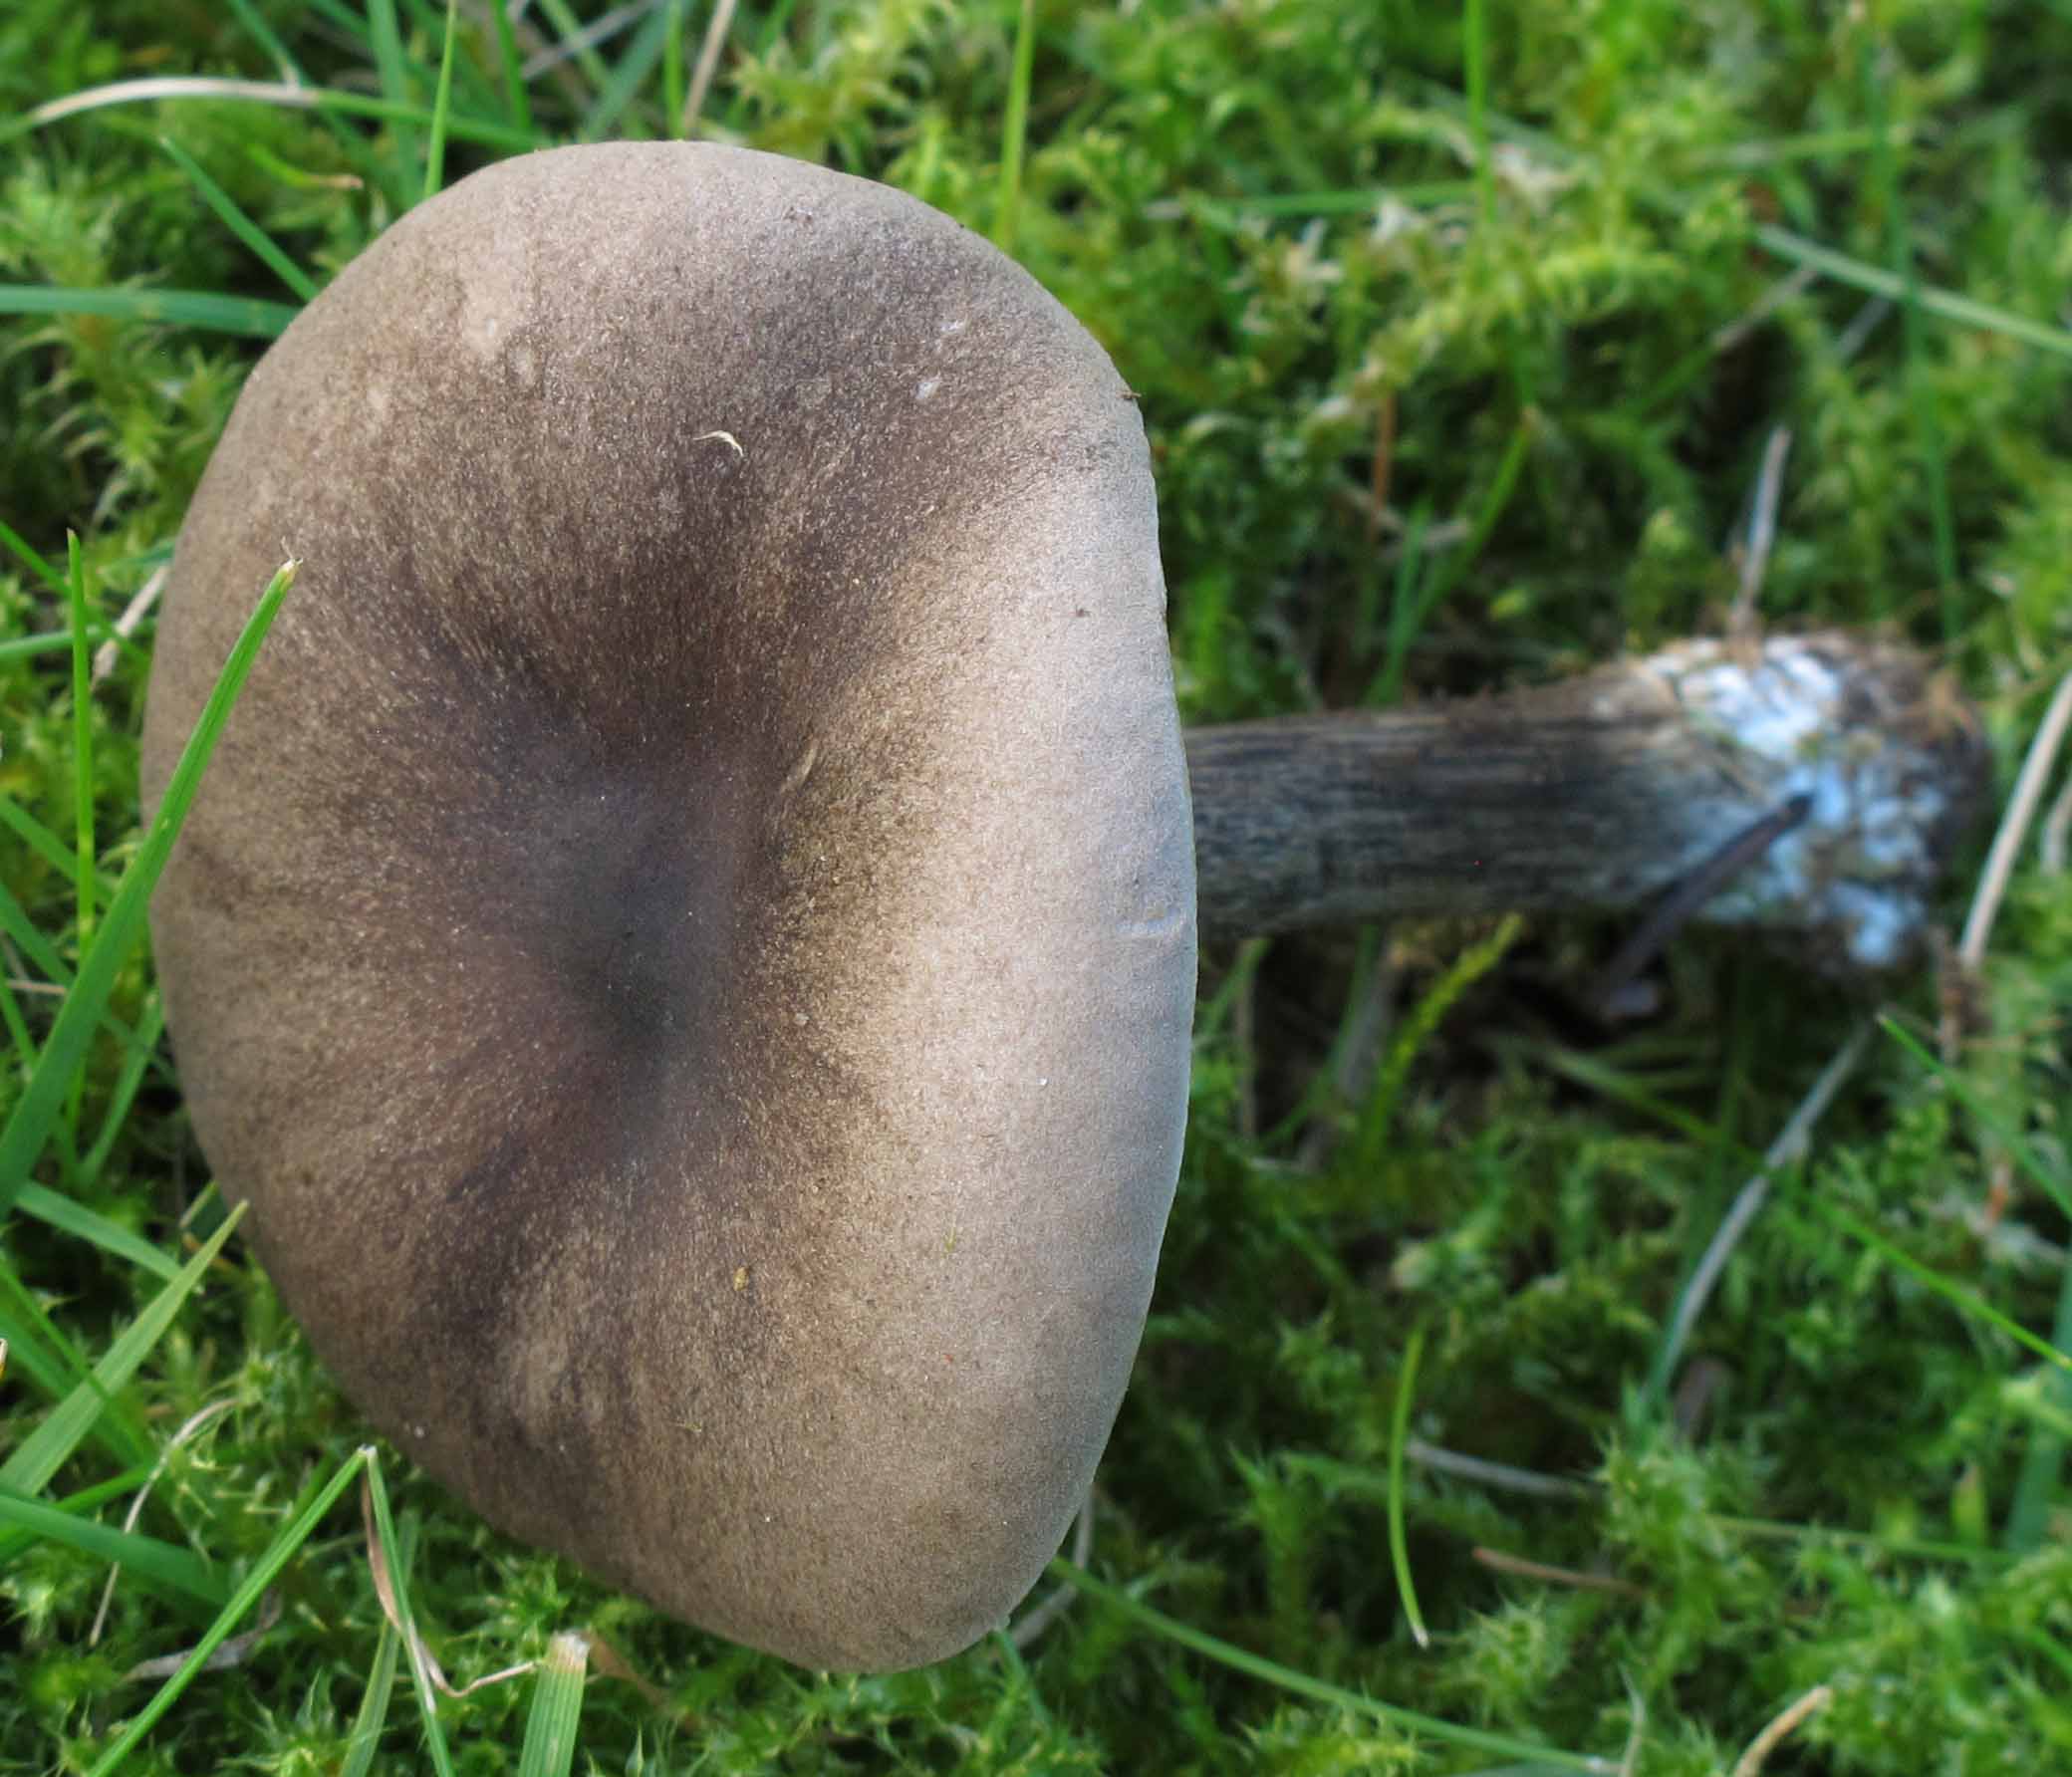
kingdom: Fungi
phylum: Basidiomycota
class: Agaricomycetes
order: Agaricales
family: Tricholomataceae
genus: Melanoleuca
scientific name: Melanoleuca exscissa
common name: gusten munkehat
